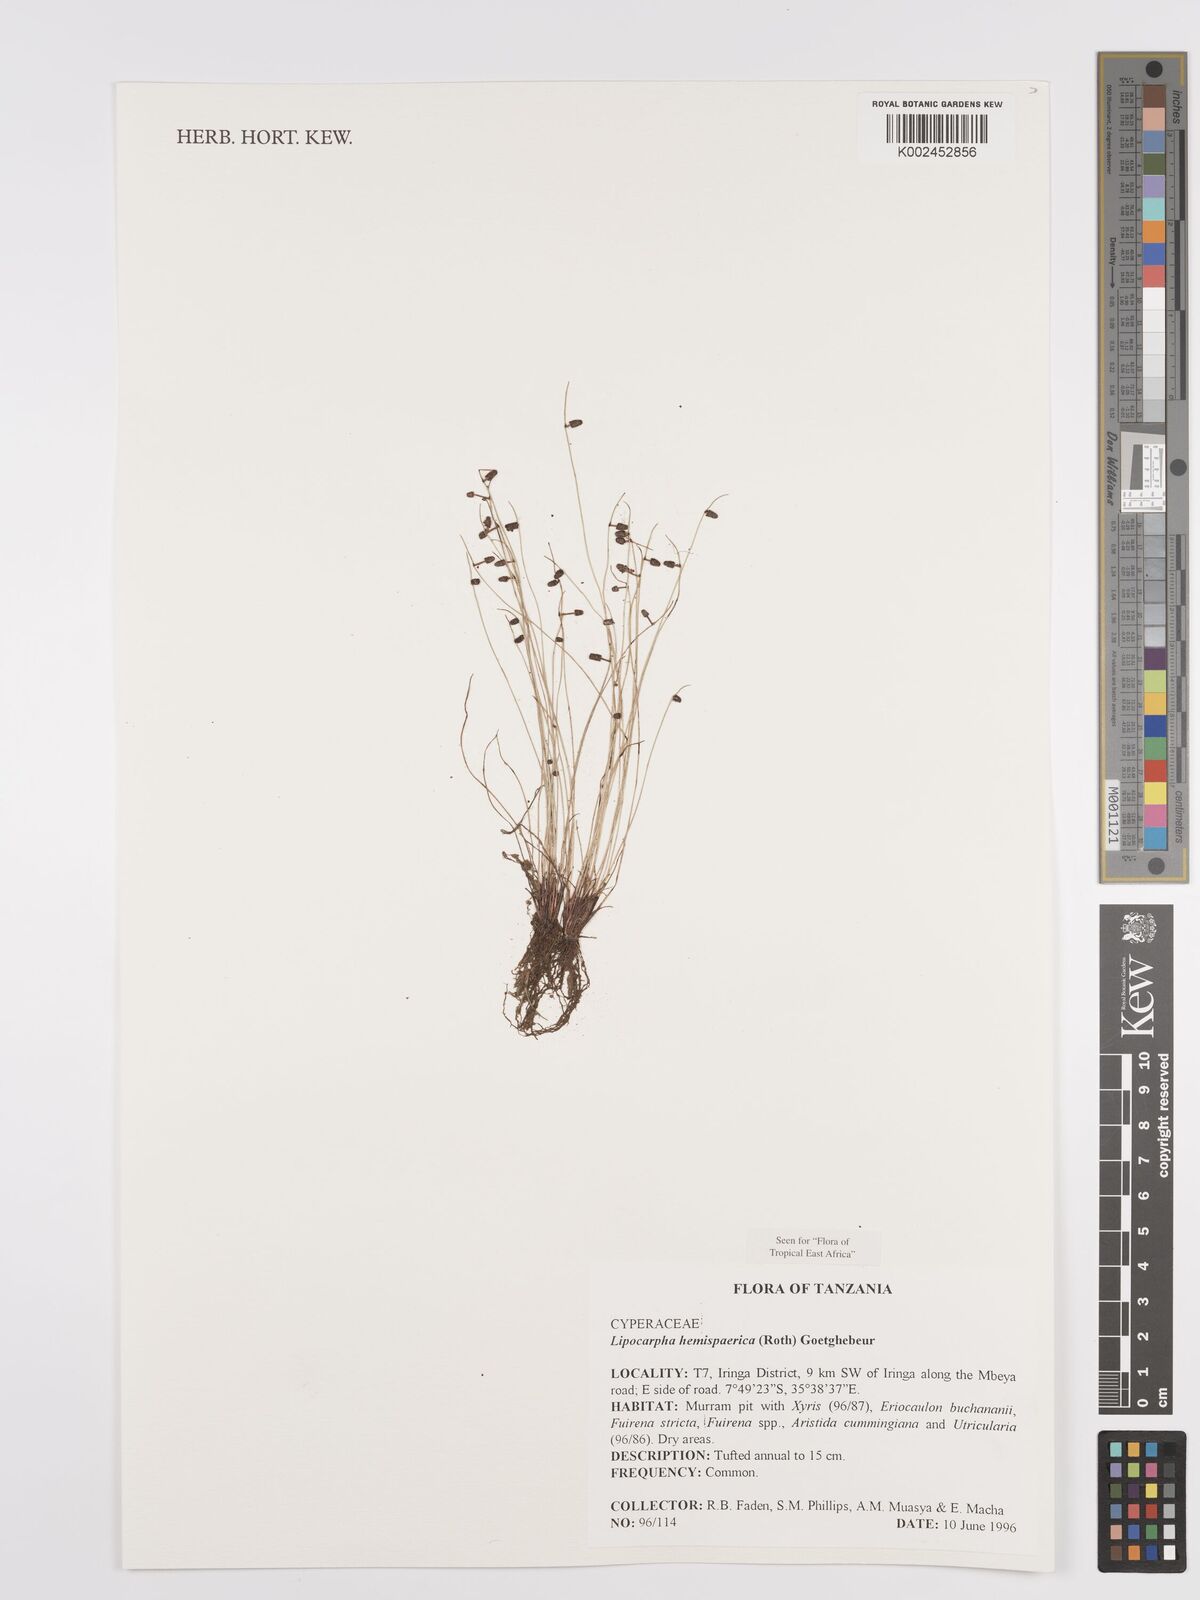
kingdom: Plantae
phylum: Tracheophyta
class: Liliopsida
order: Poales
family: Cyperaceae
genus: Cyperus
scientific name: Cyperus hemisphaericus
